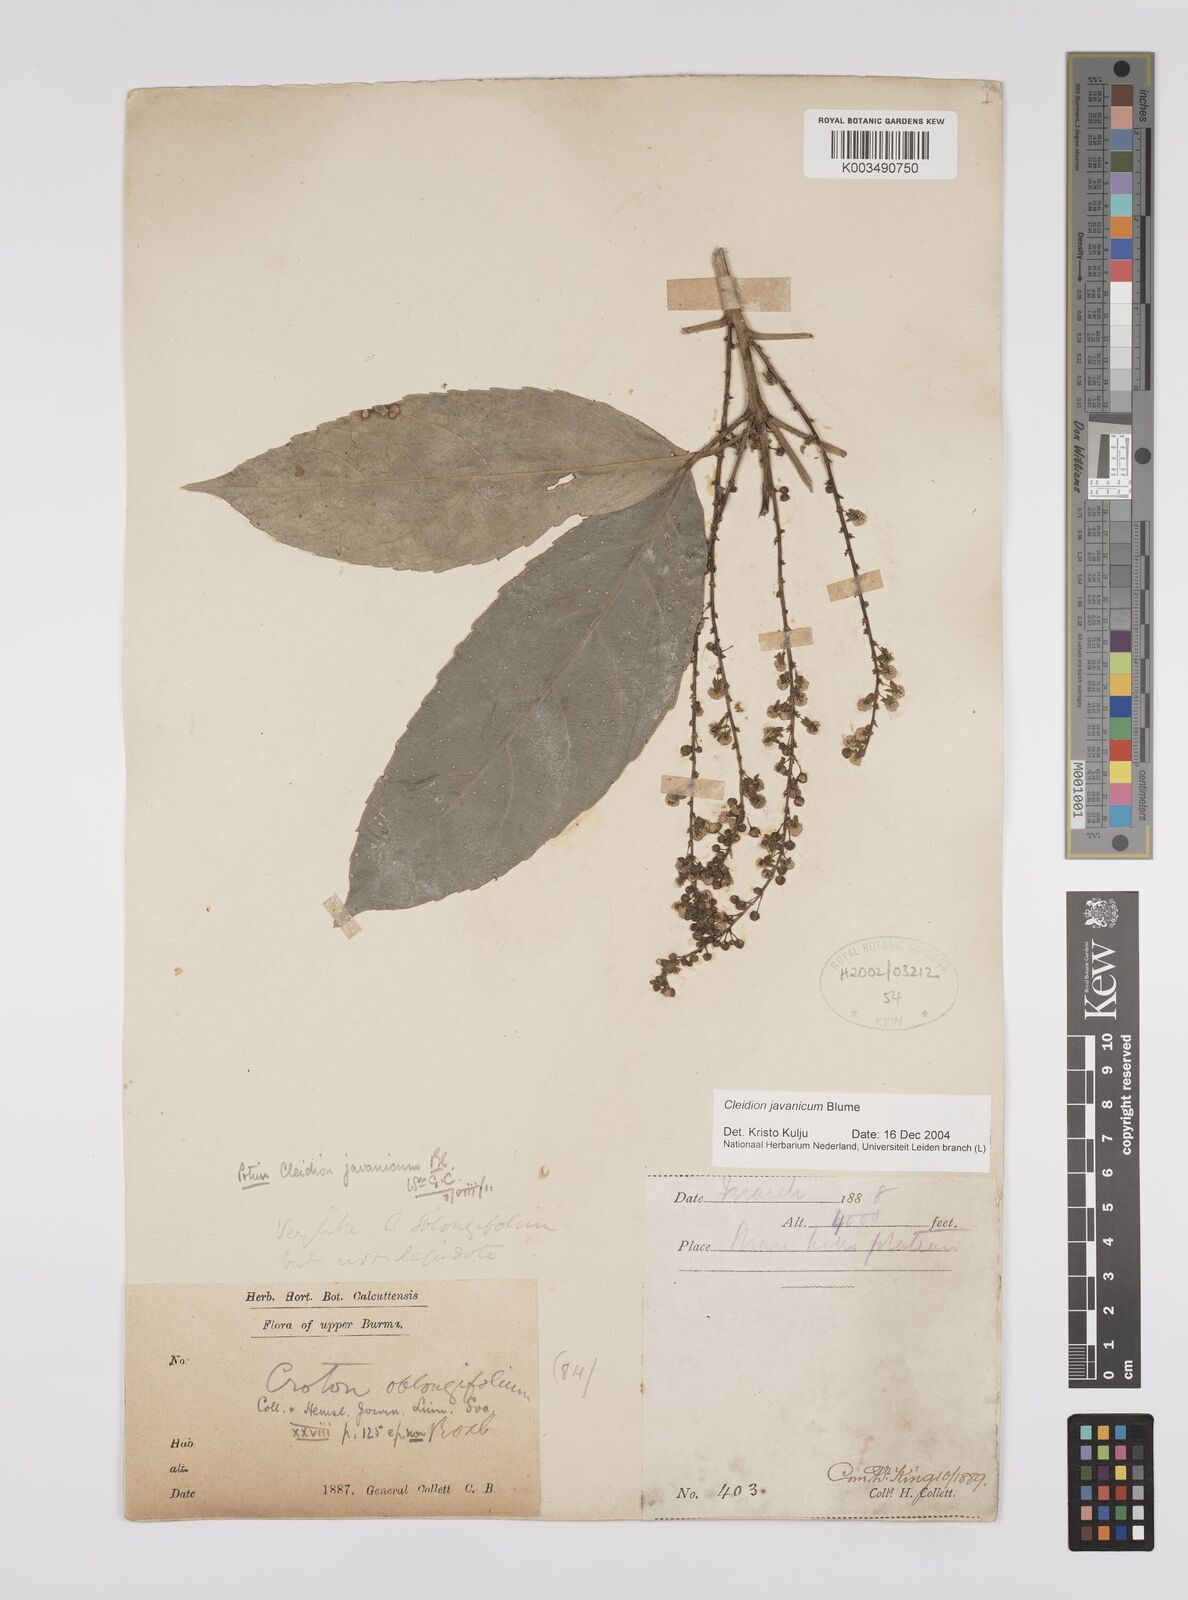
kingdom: Plantae
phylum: Tracheophyta
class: Magnoliopsida
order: Malpighiales
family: Euphorbiaceae
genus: Acalypha
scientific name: Acalypha spiciflora
